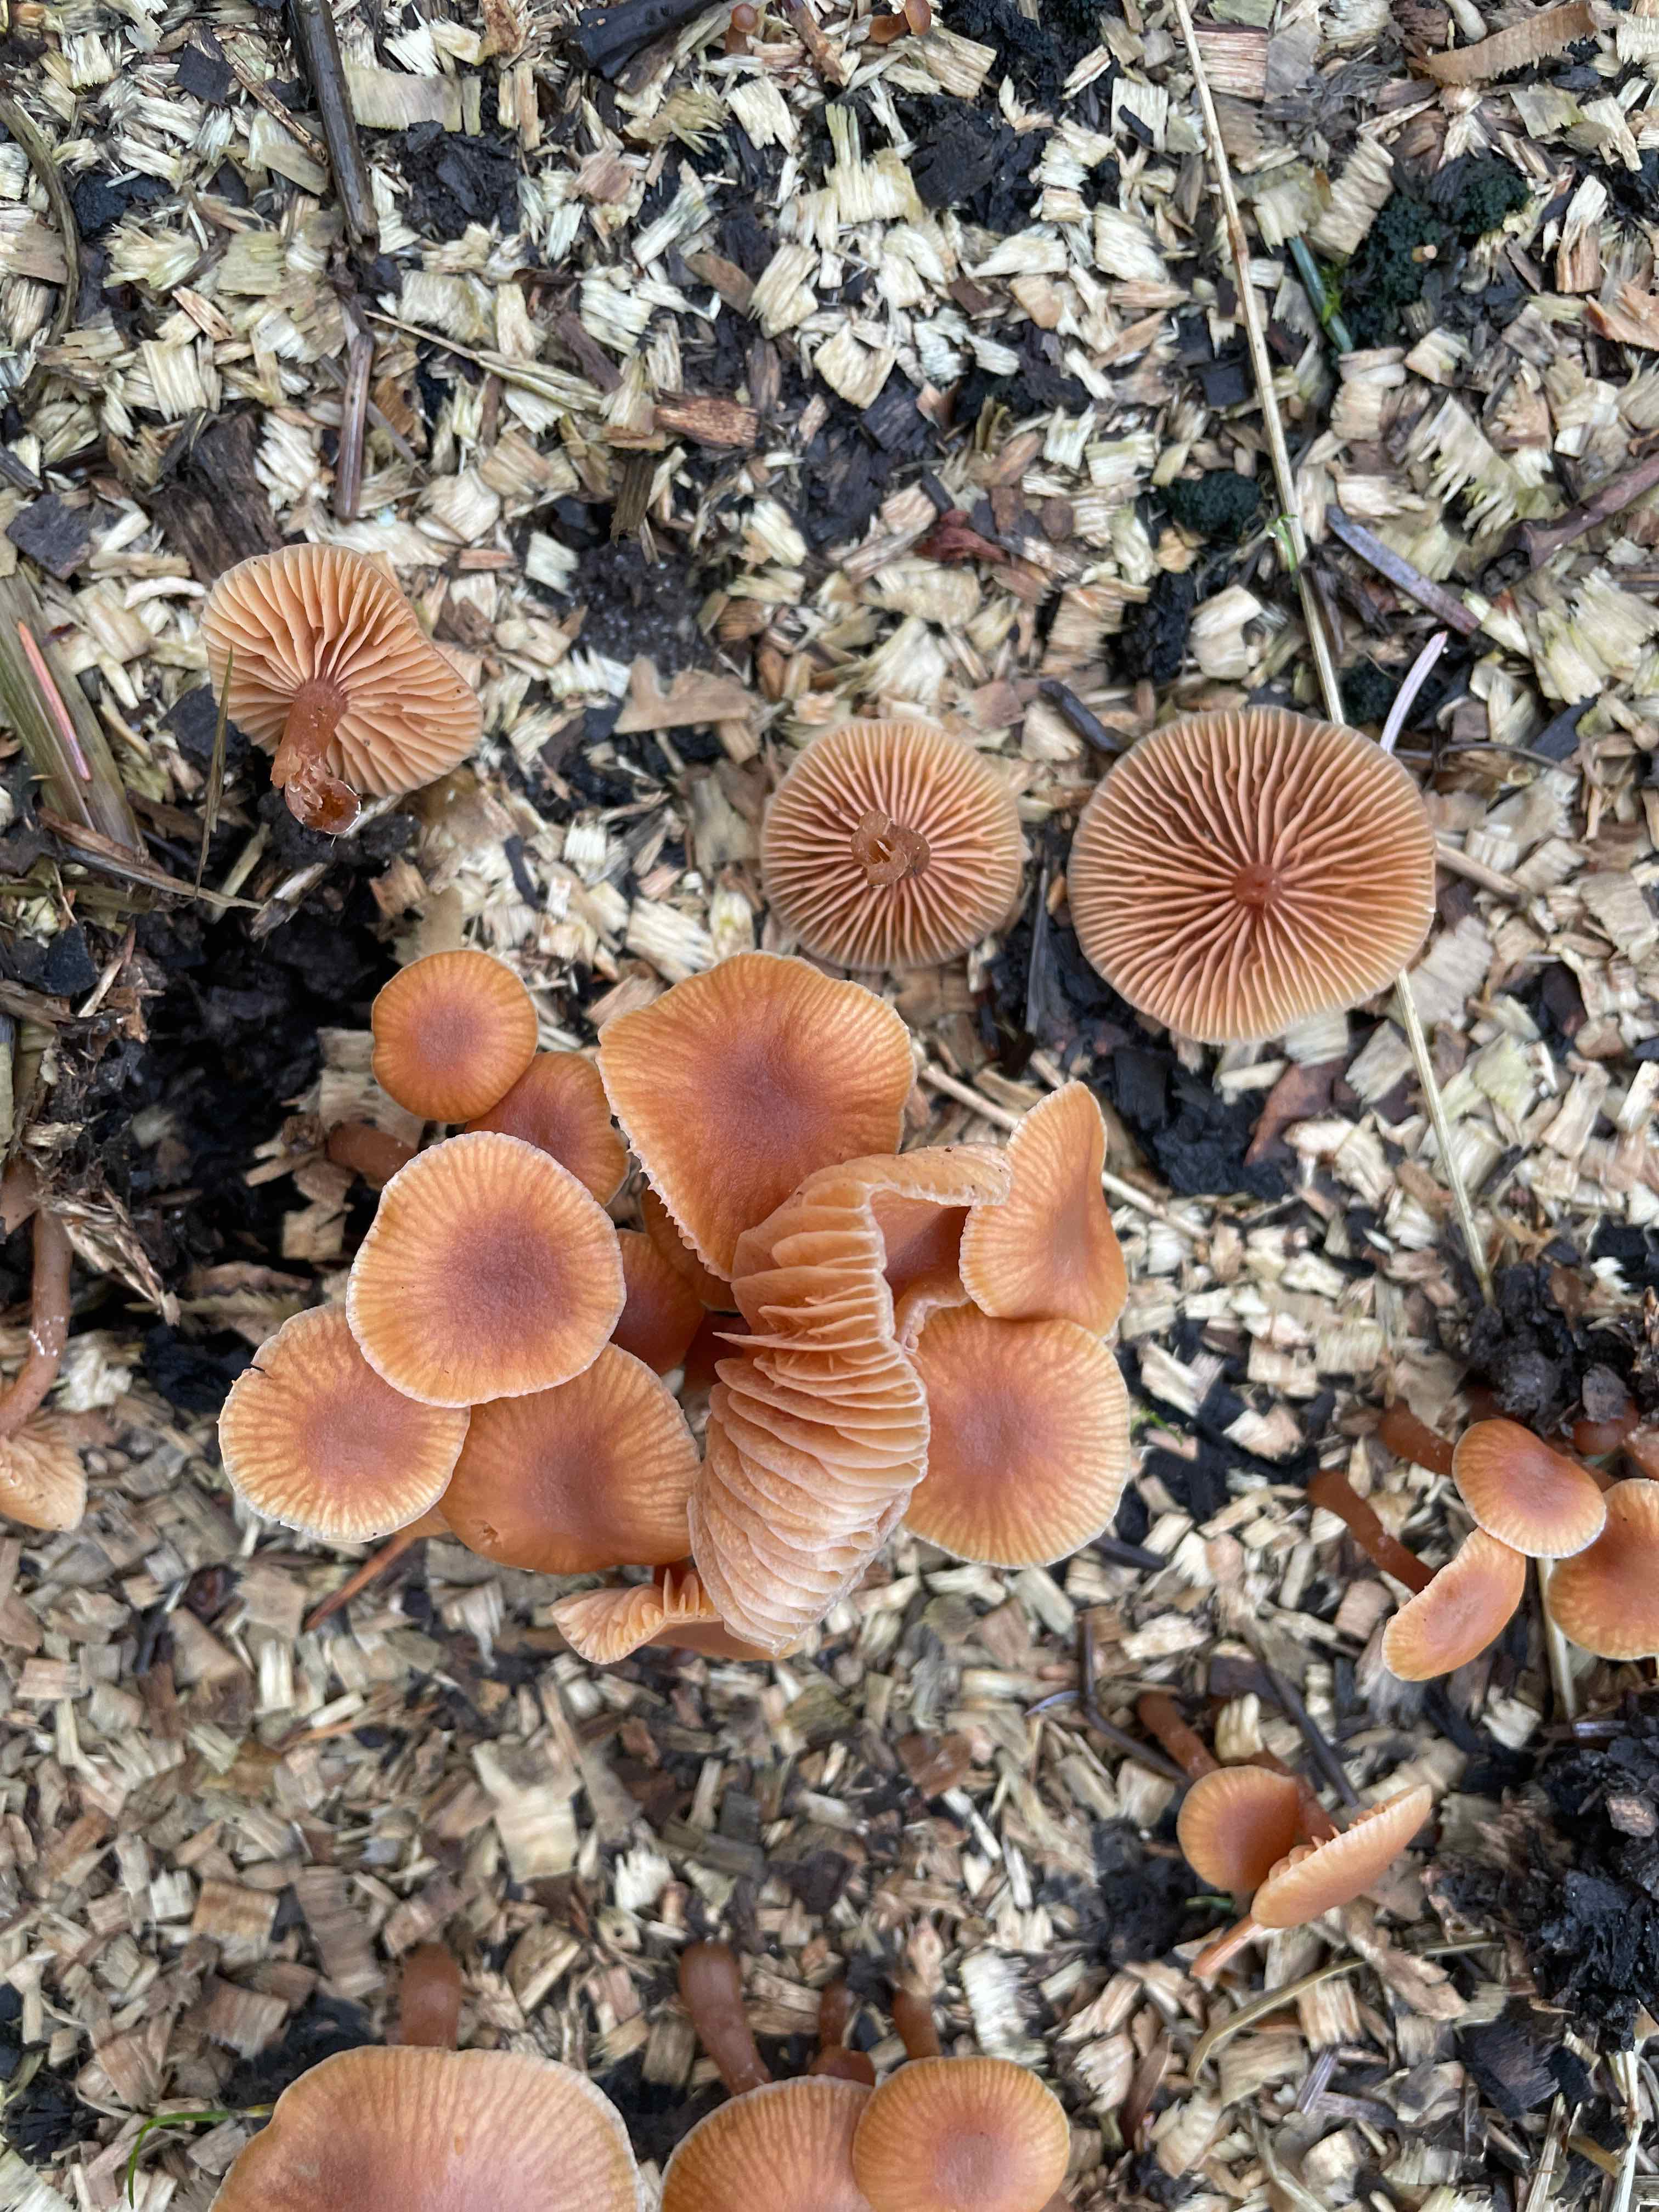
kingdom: Fungi
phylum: Basidiomycota
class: Agaricomycetes
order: Agaricales
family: Tubariaceae
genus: Tubaria
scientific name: Tubaria furfuracea
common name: kliddet fnughat
